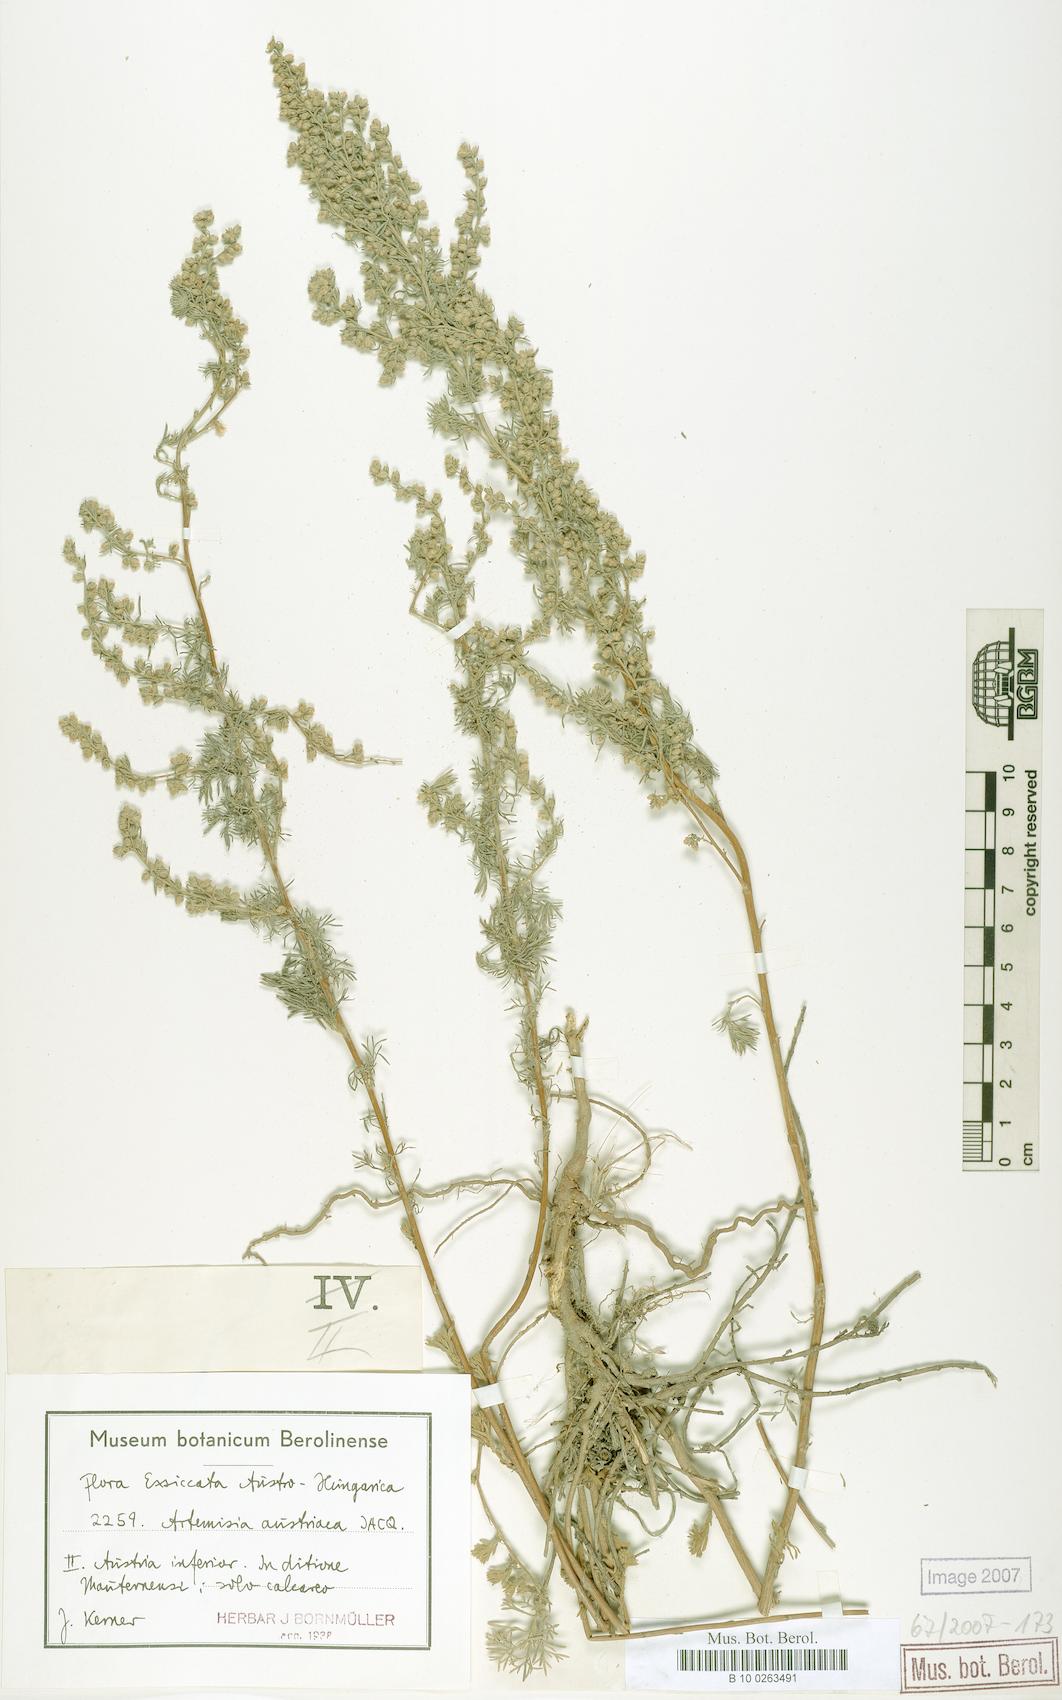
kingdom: Plantae
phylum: Tracheophyta
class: Magnoliopsida
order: Asterales
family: Asteraceae
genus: Artemisia
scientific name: Artemisia austriaca
